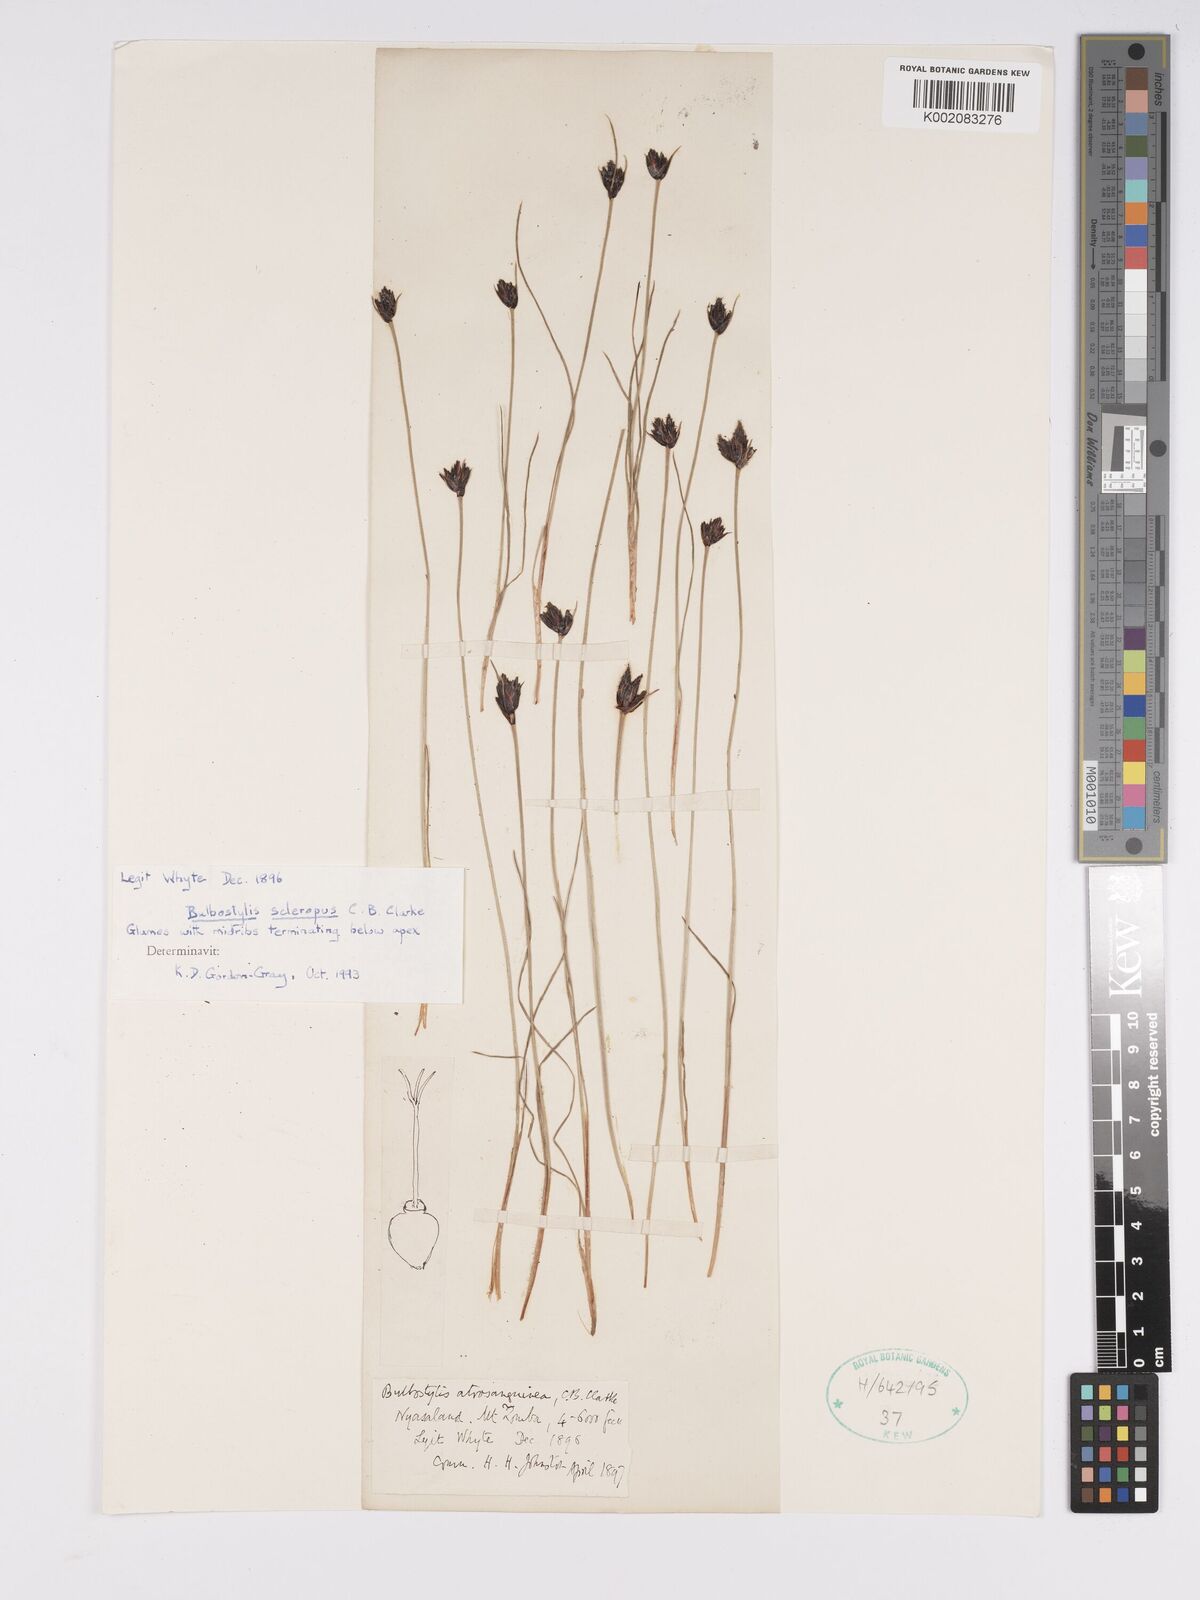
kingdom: Plantae
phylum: Tracheophyta
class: Liliopsida
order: Poales
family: Cyperaceae
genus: Bulbostylis
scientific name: Bulbostylis schoenoides
